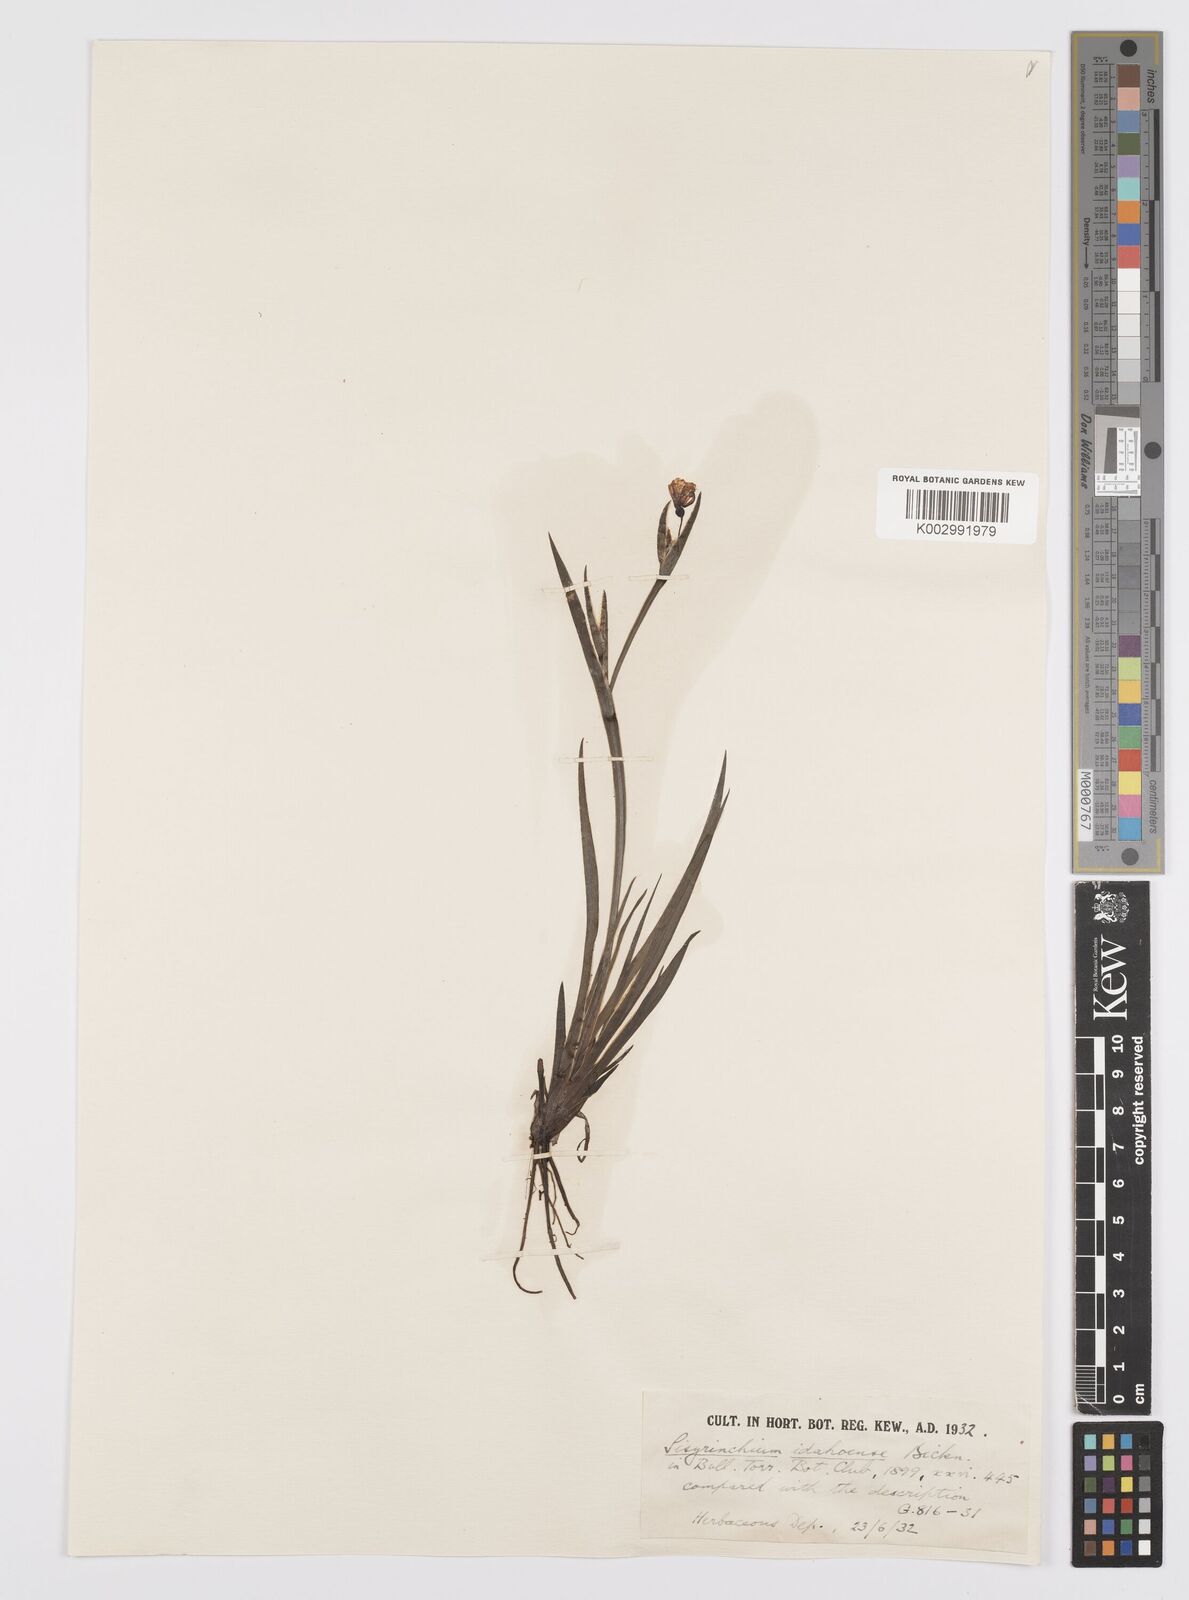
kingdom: Plantae
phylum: Tracheophyta
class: Liliopsida
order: Asparagales
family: Iridaceae
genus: Sisyrinchium
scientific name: Sisyrinchium idahoense
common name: Idaho blue-eyed-grass
